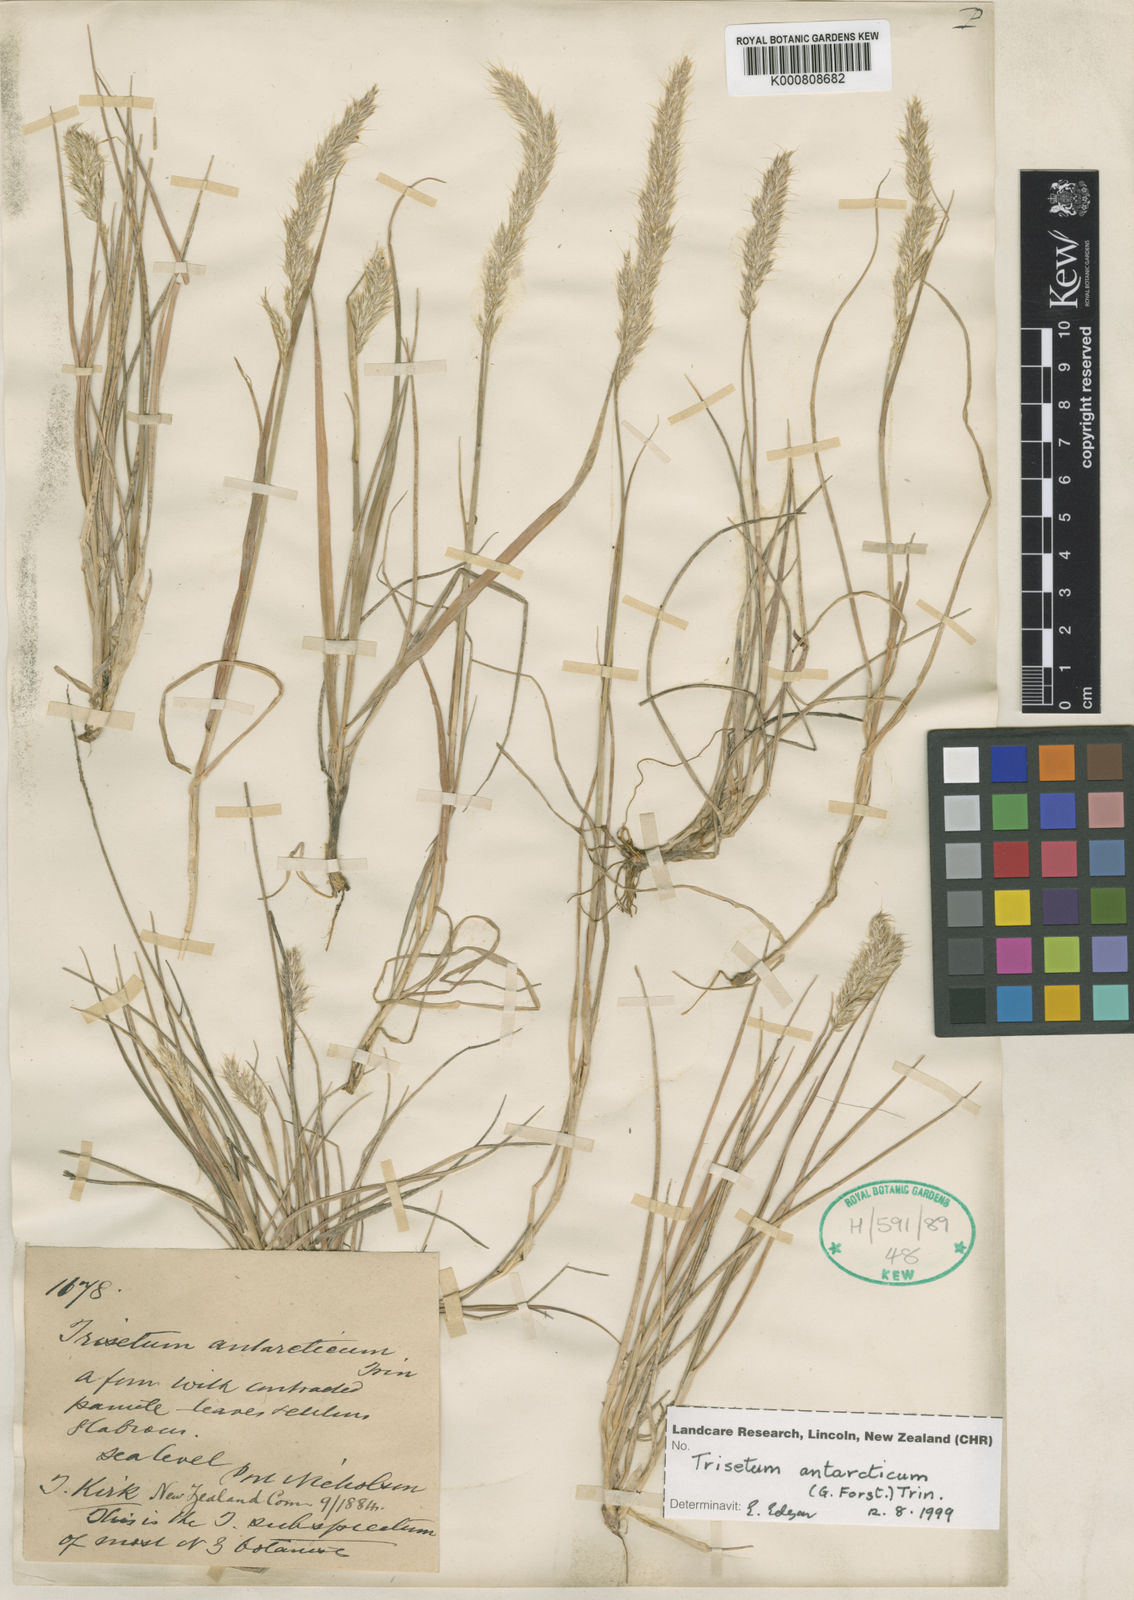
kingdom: Plantae
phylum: Tracheophyta
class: Liliopsida
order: Poales
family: Poaceae
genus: Koeleria
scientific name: Koeleria antarctica
